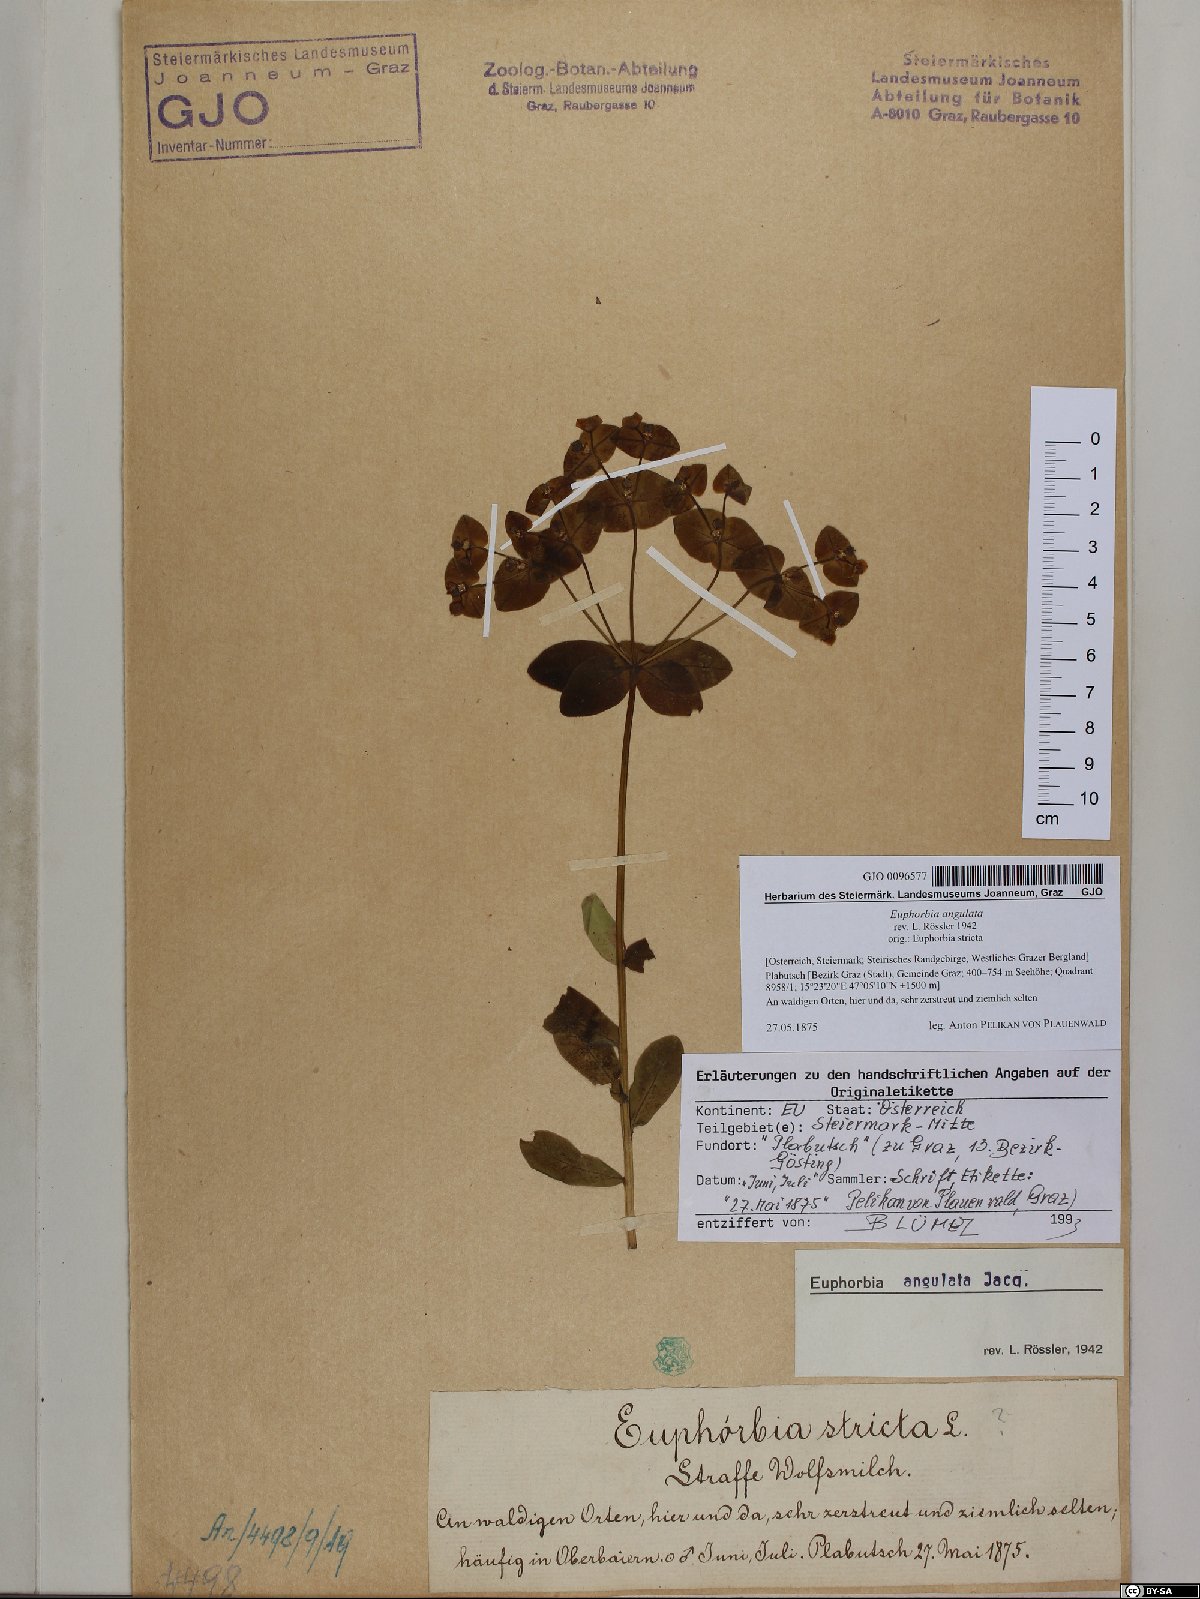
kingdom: Plantae
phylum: Tracheophyta
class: Magnoliopsida
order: Malpighiales
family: Euphorbiaceae
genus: Euphorbia
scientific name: Euphorbia angulata
